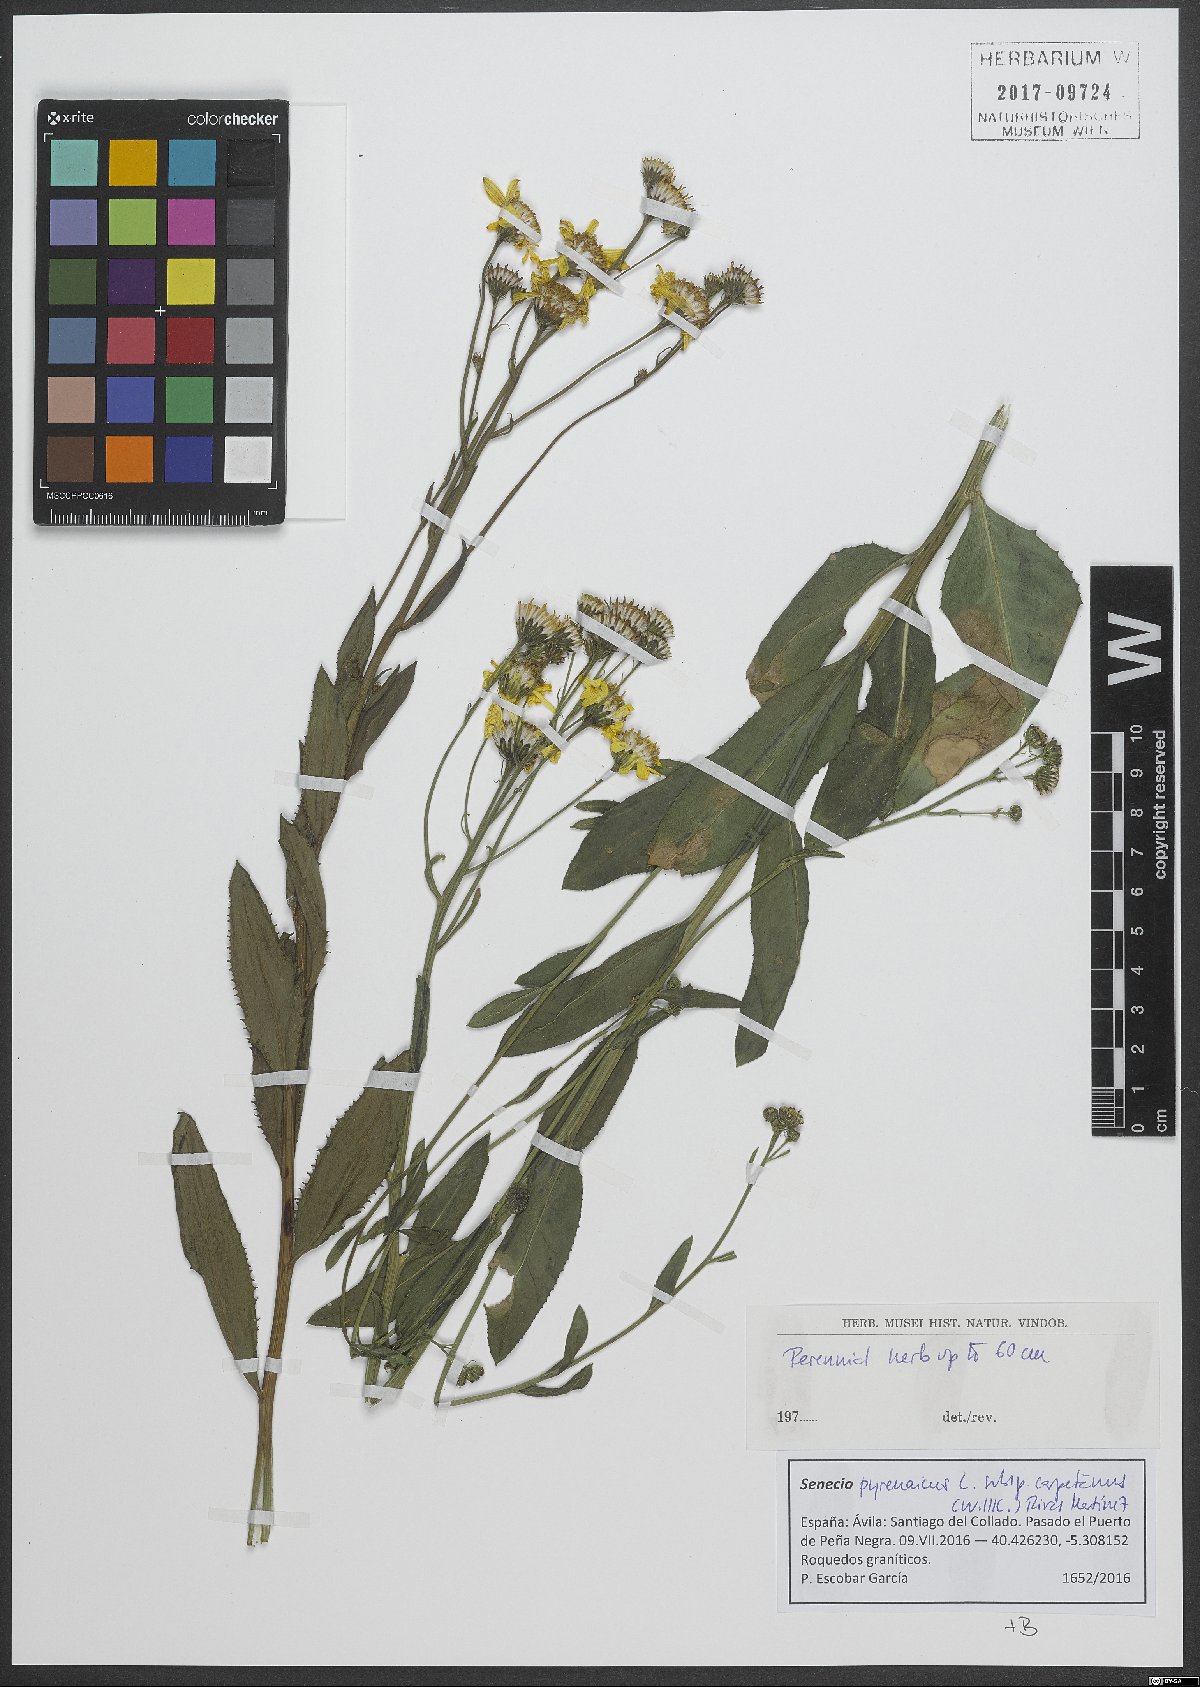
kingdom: Plantae
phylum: Tracheophyta
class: Magnoliopsida
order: Asterales
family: Asteraceae
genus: Senecio
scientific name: Senecio pyrenaicus
